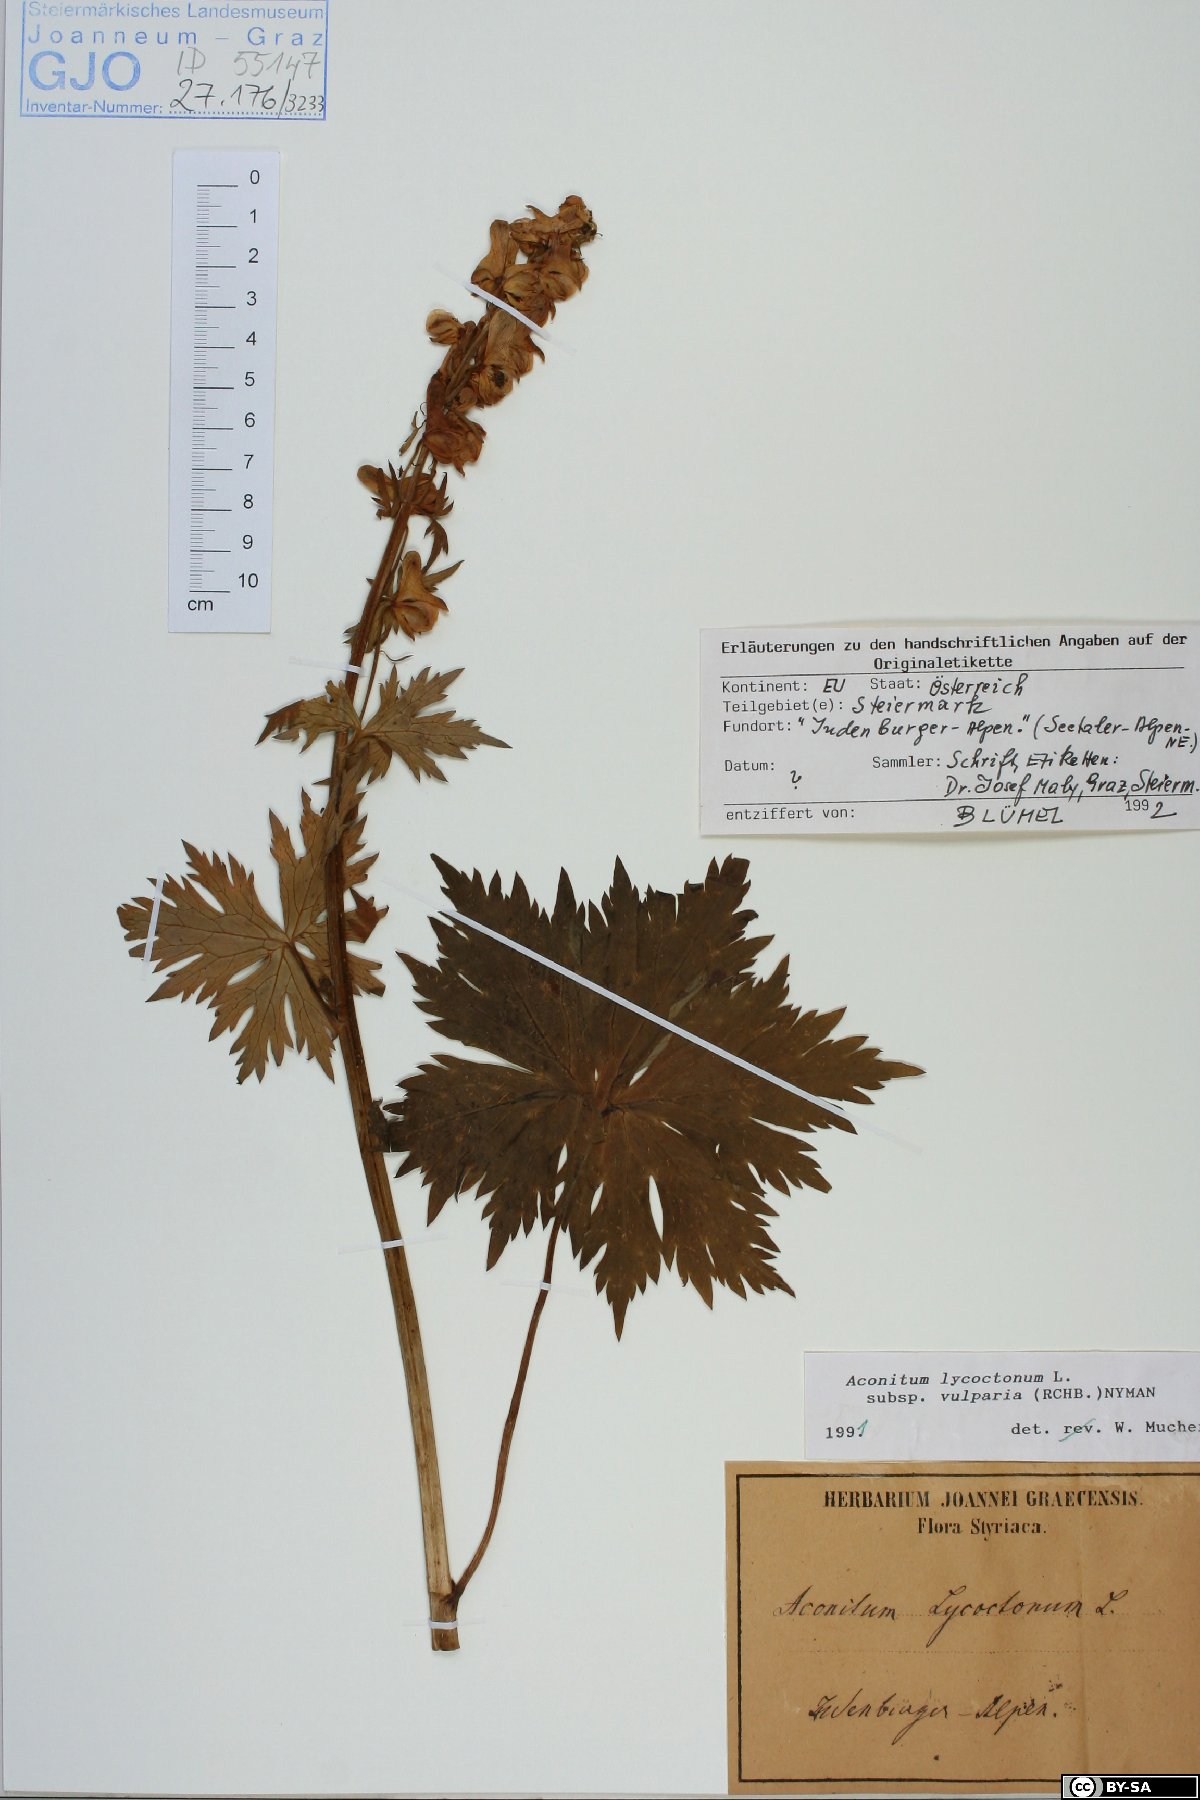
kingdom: Plantae
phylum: Tracheophyta
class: Magnoliopsida
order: Ranunculales
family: Ranunculaceae
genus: Aconitum
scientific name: Aconitum lycoctonum
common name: Wolf's-bane
